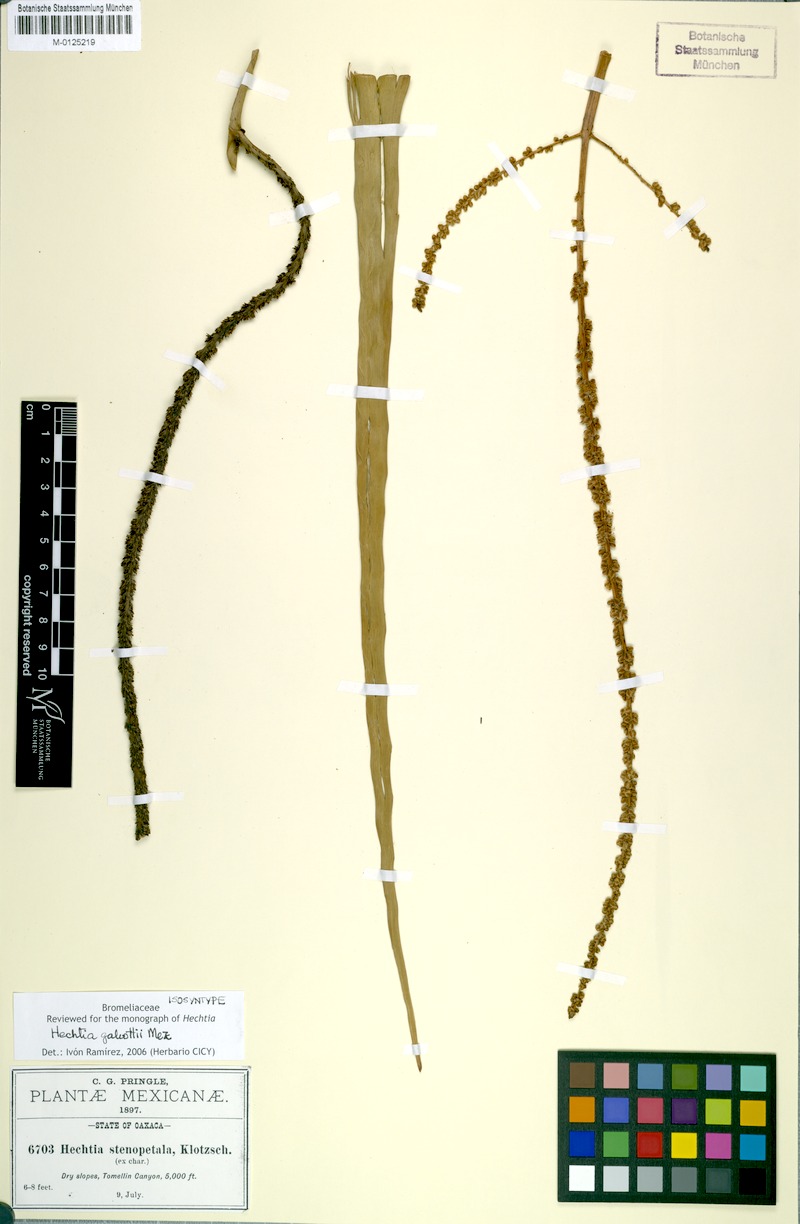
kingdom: Plantae
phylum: Tracheophyta
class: Liliopsida
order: Poales
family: Bromeliaceae
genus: Hechtia
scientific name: Hechtia galeottii
